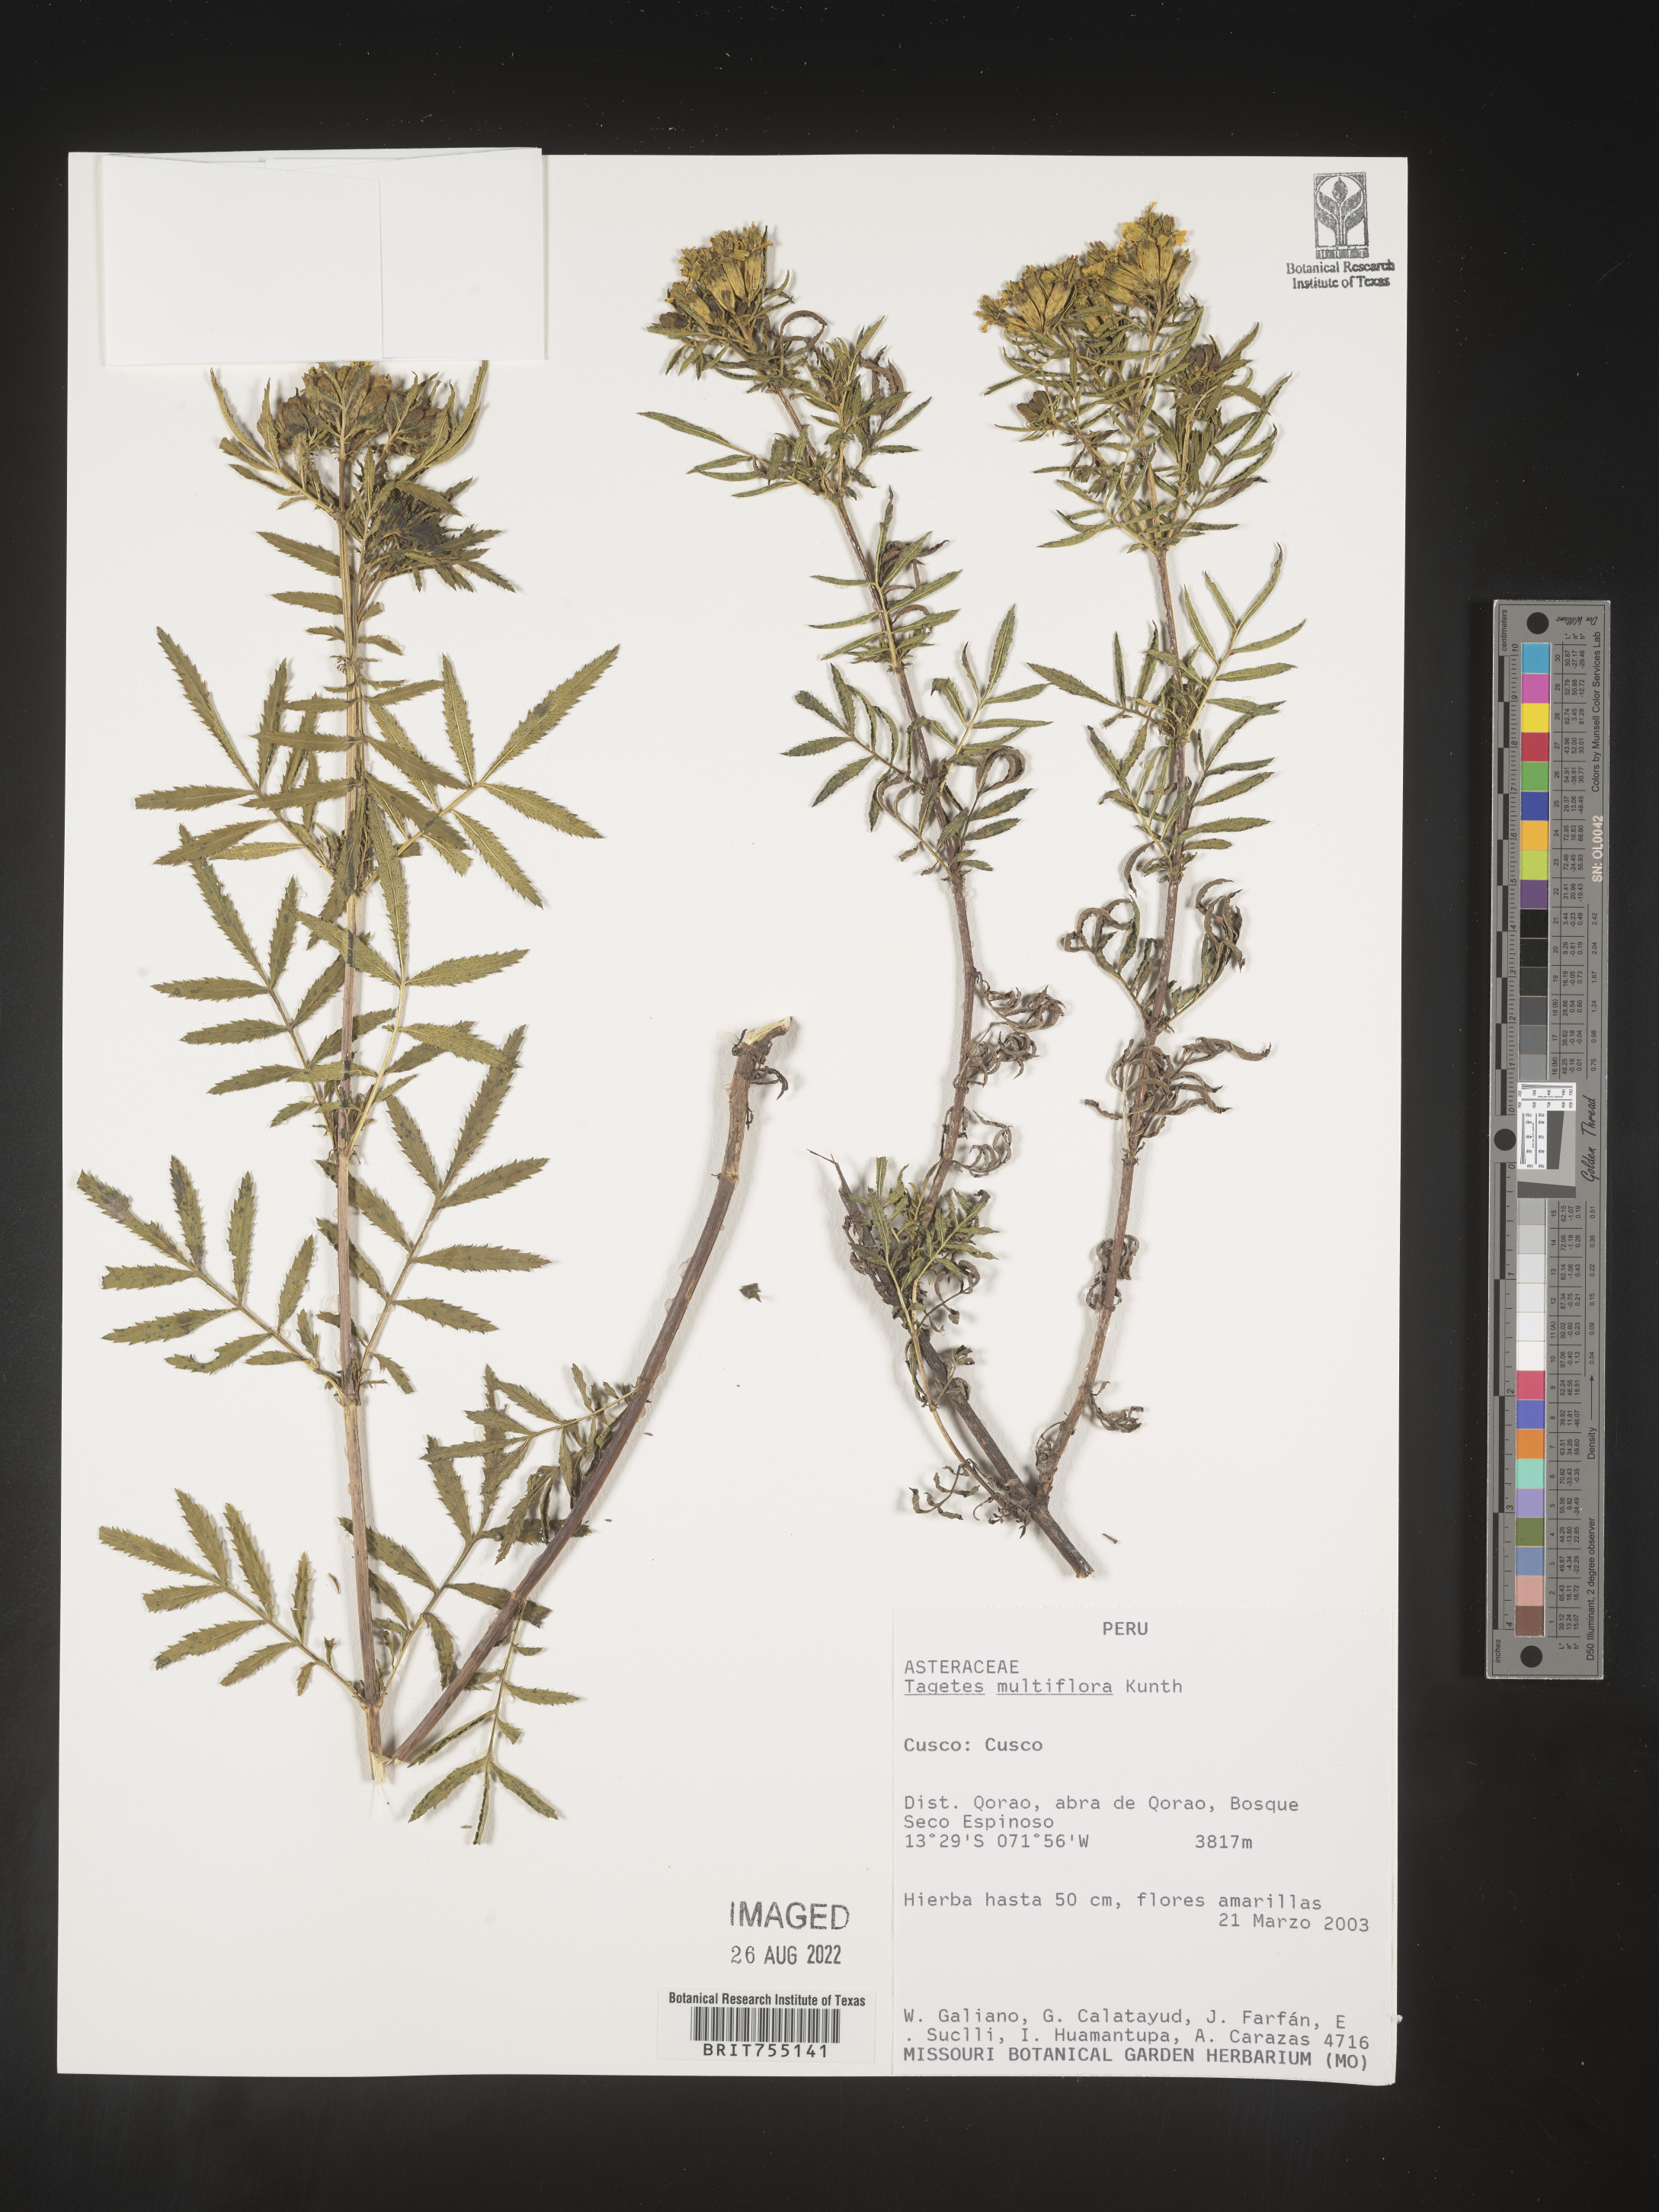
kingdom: Plantae
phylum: Tracheophyta
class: Magnoliopsida
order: Asterales
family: Asteraceae
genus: Tagetes
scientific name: Tagetes
